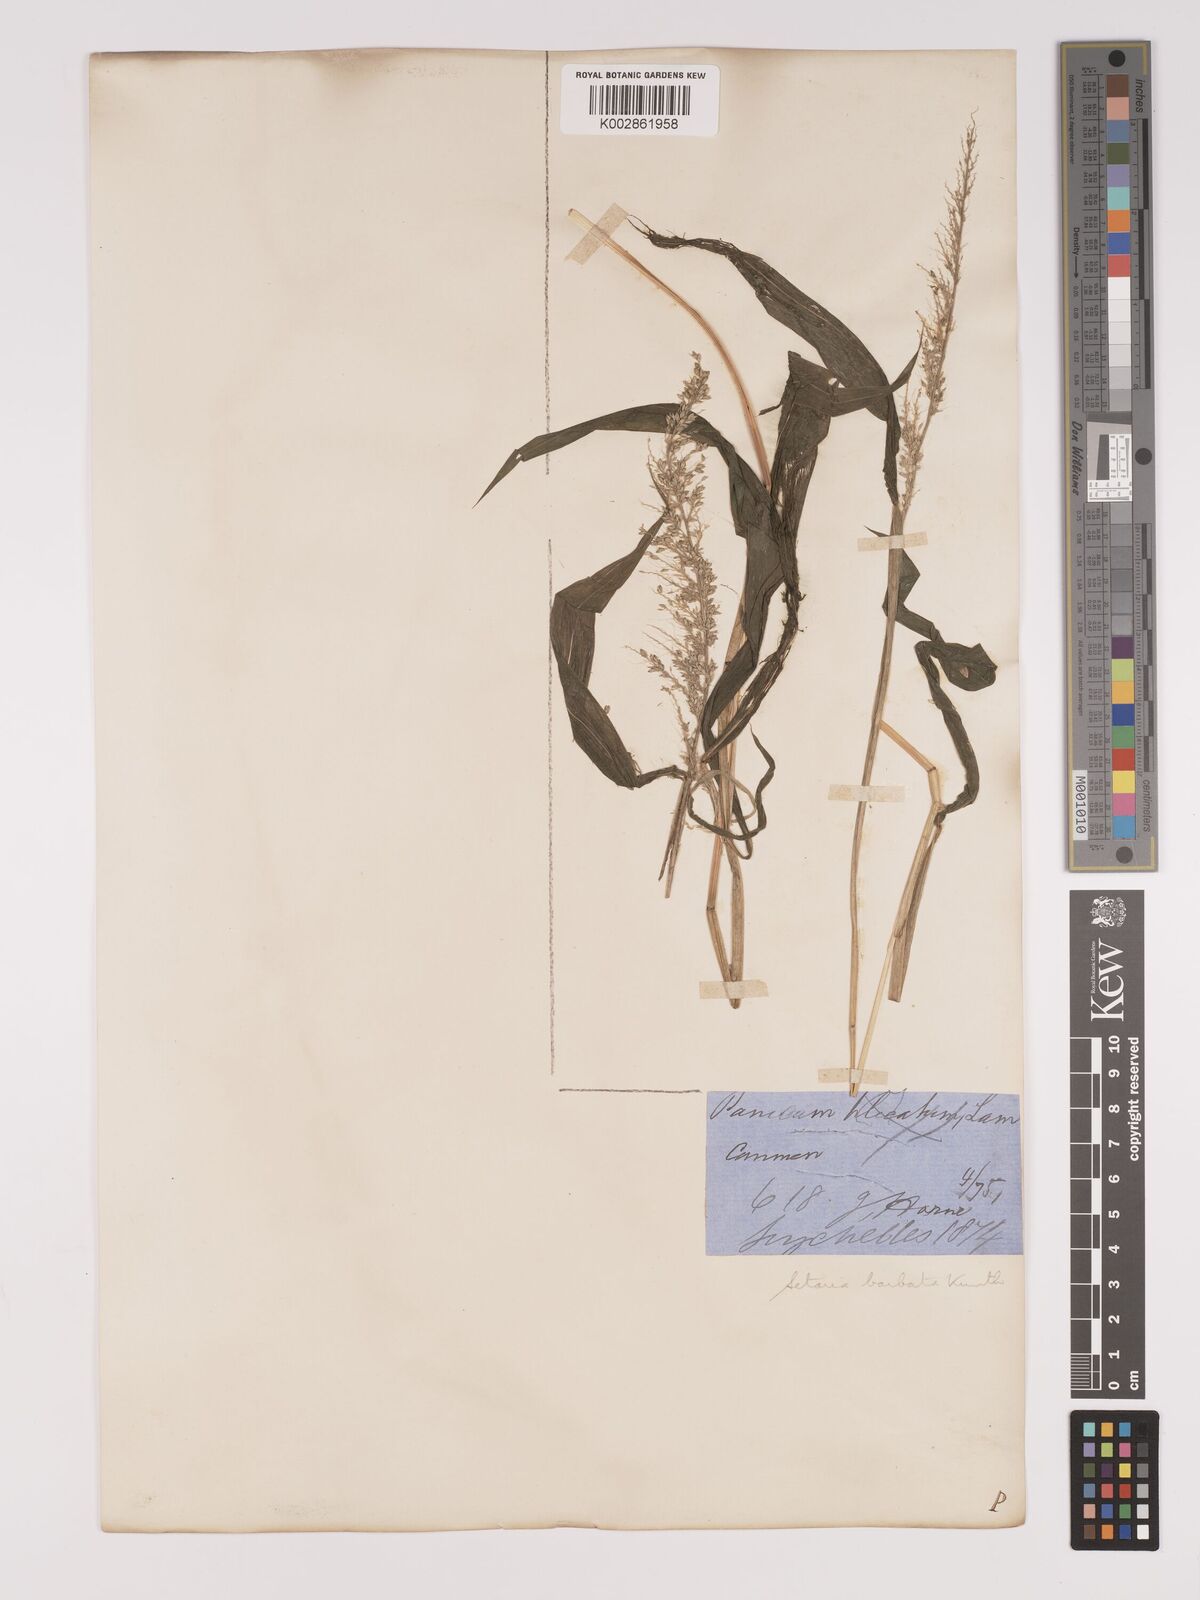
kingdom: Plantae
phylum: Tracheophyta
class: Liliopsida
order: Poales
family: Poaceae
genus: Setaria
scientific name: Setaria barbata
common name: East indian bristlegrass
